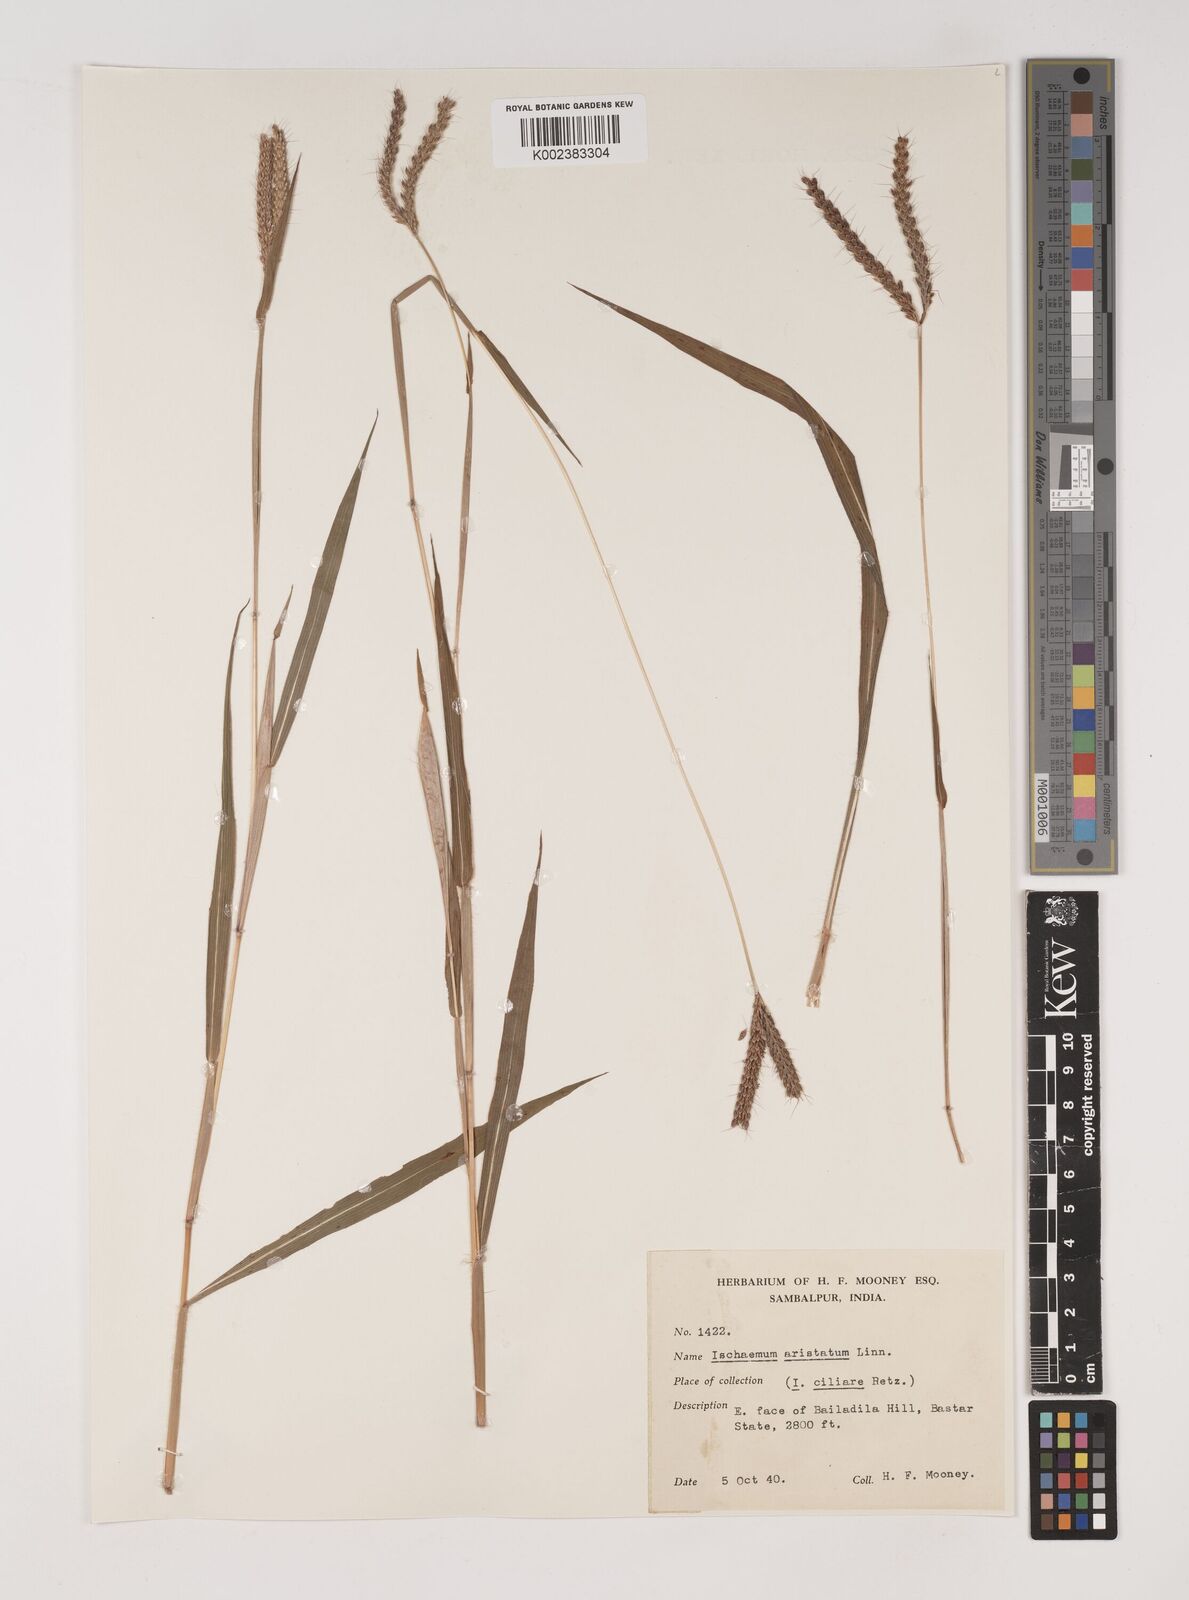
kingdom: Plantae
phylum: Tracheophyta
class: Liliopsida
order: Poales
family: Poaceae
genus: Polytrias
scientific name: Polytrias indica
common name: Indian murainagrass
